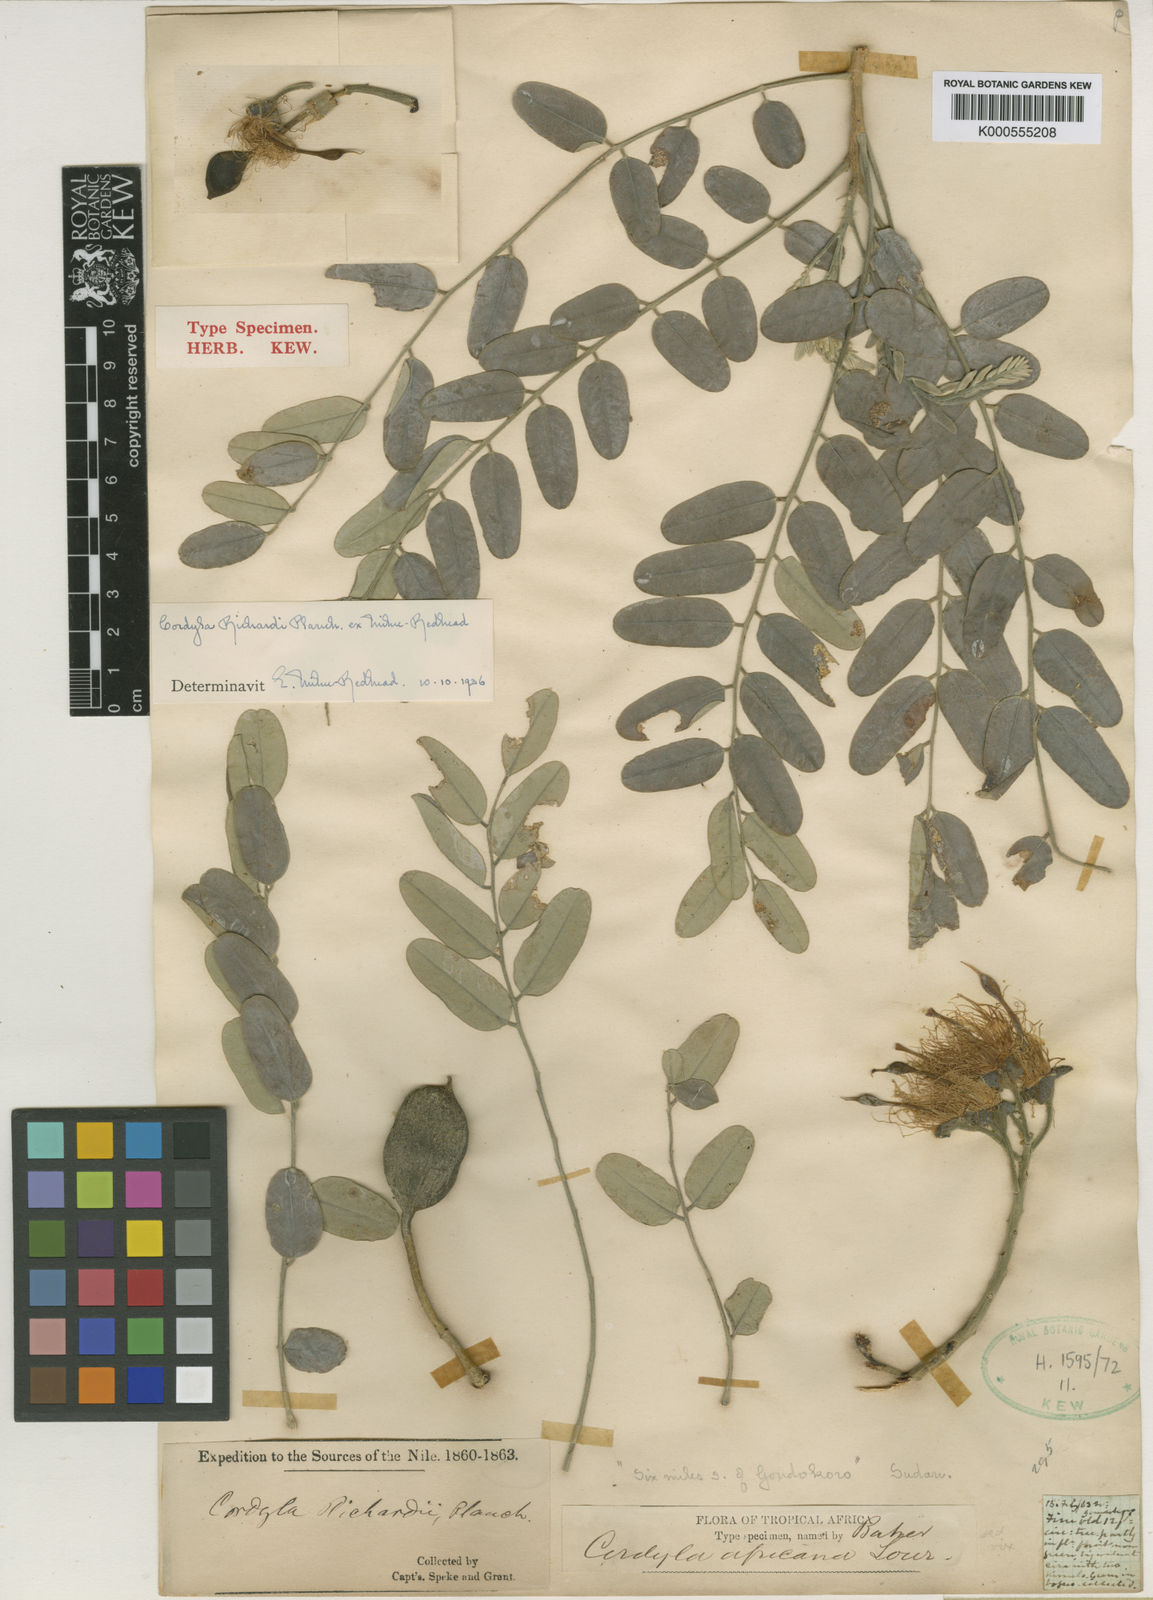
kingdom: Plantae
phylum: Tracheophyta
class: Magnoliopsida
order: Fabales
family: Fabaceae
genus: Cordyla
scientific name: Cordyla
